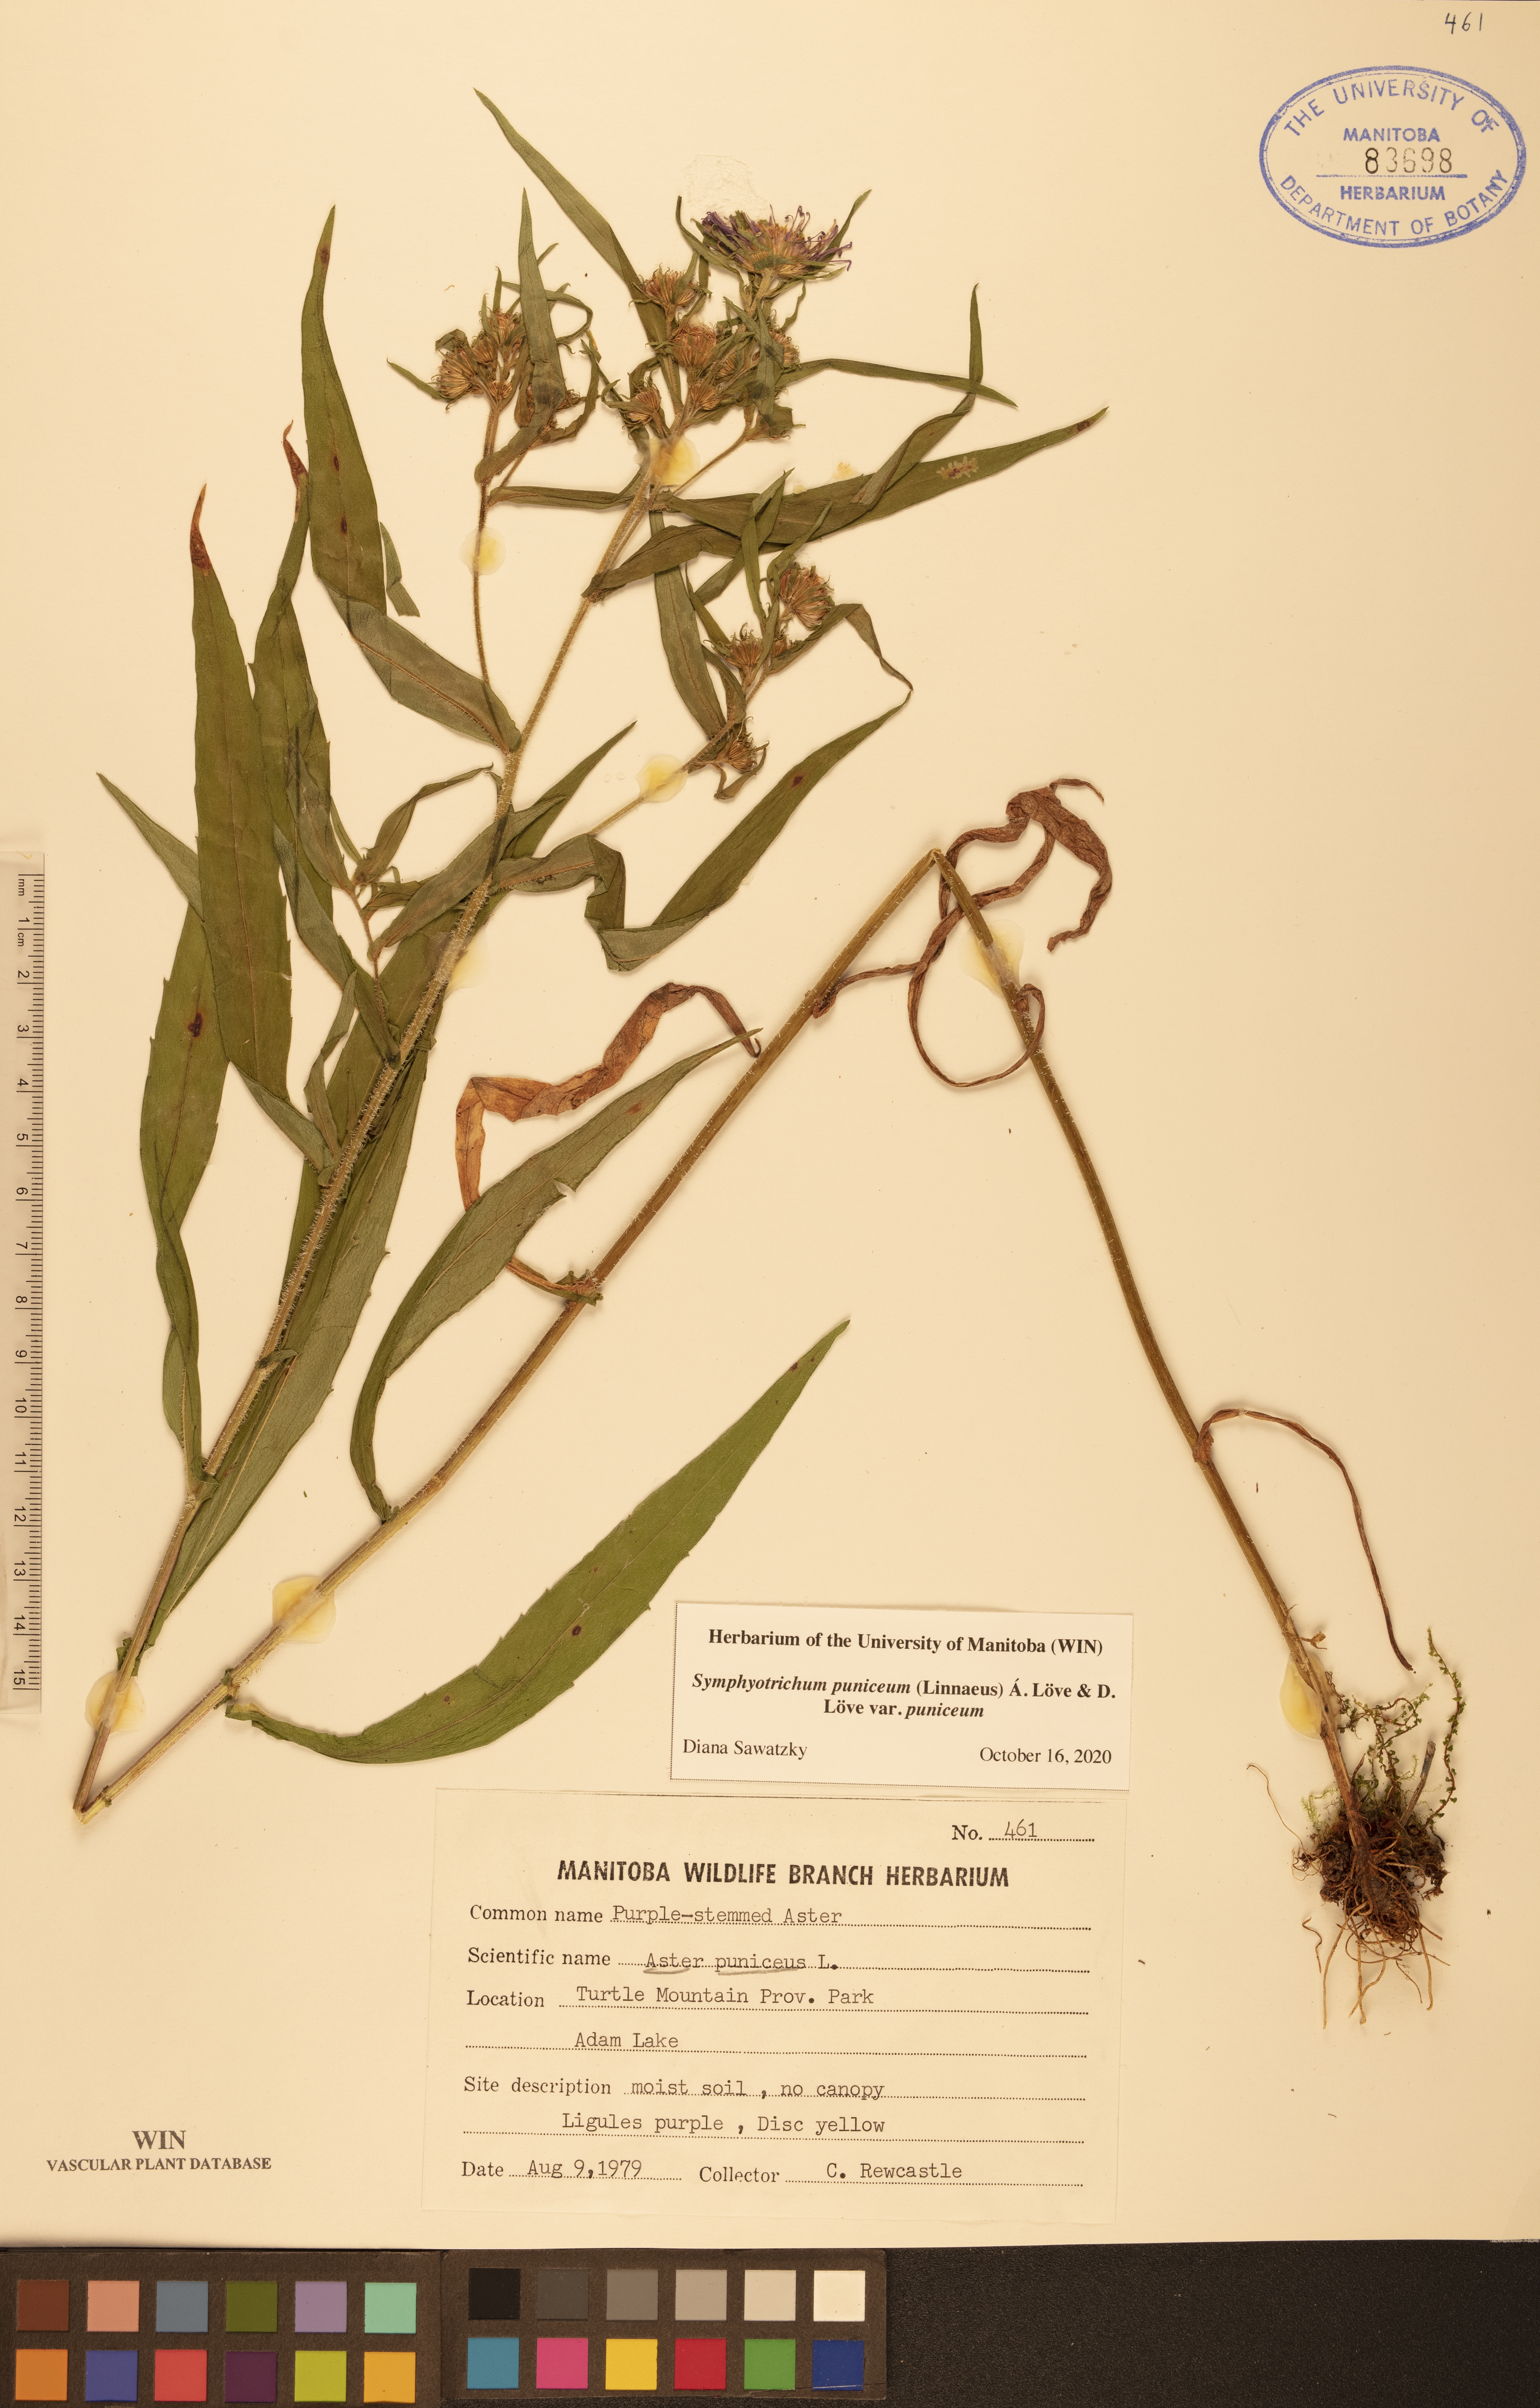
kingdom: Plantae
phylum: Tracheophyta
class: Magnoliopsida
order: Asterales
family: Asteraceae
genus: Symphyotrichum
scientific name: Symphyotrichum puniceum
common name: Bog aster
